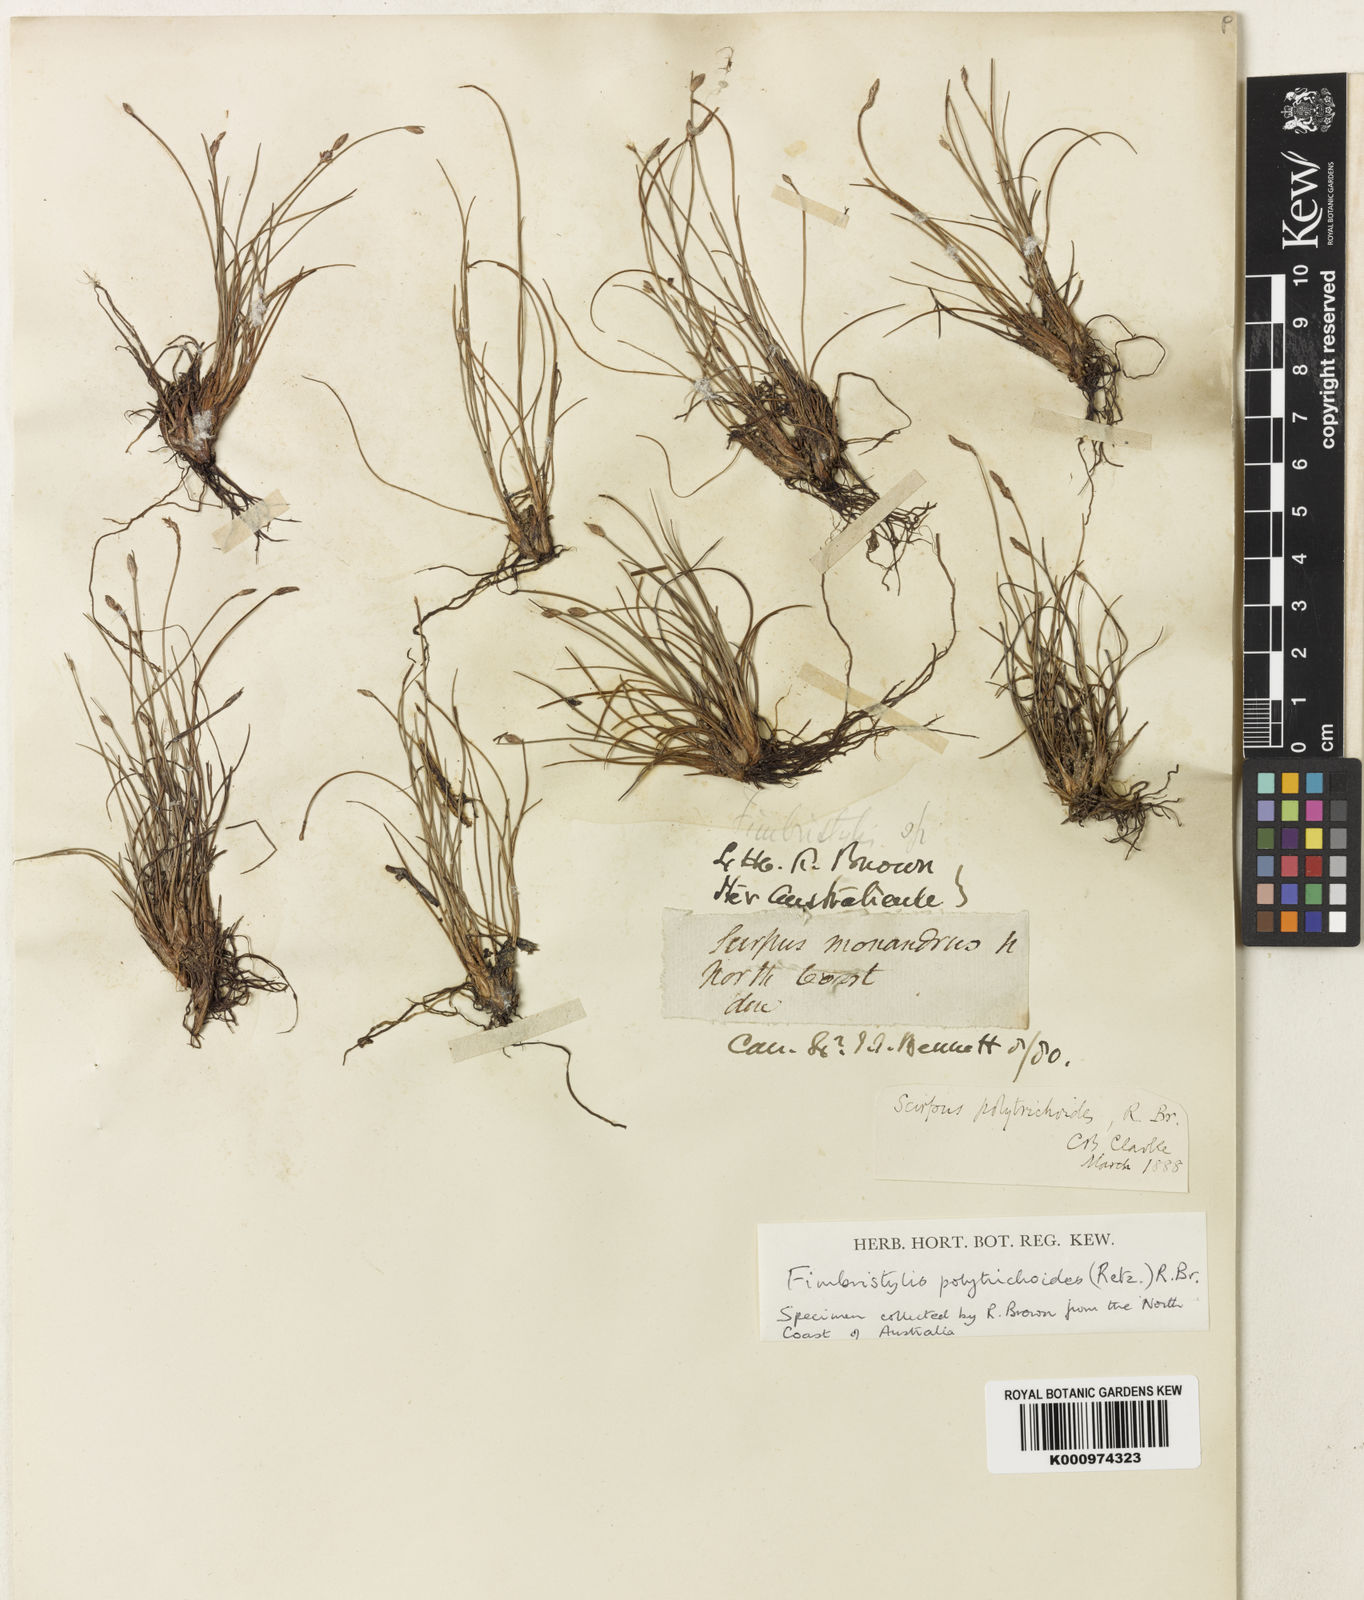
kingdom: Plantae
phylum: Tracheophyta
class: Liliopsida
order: Poales
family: Cyperaceae
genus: Fimbristylis
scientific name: Fimbristylis
